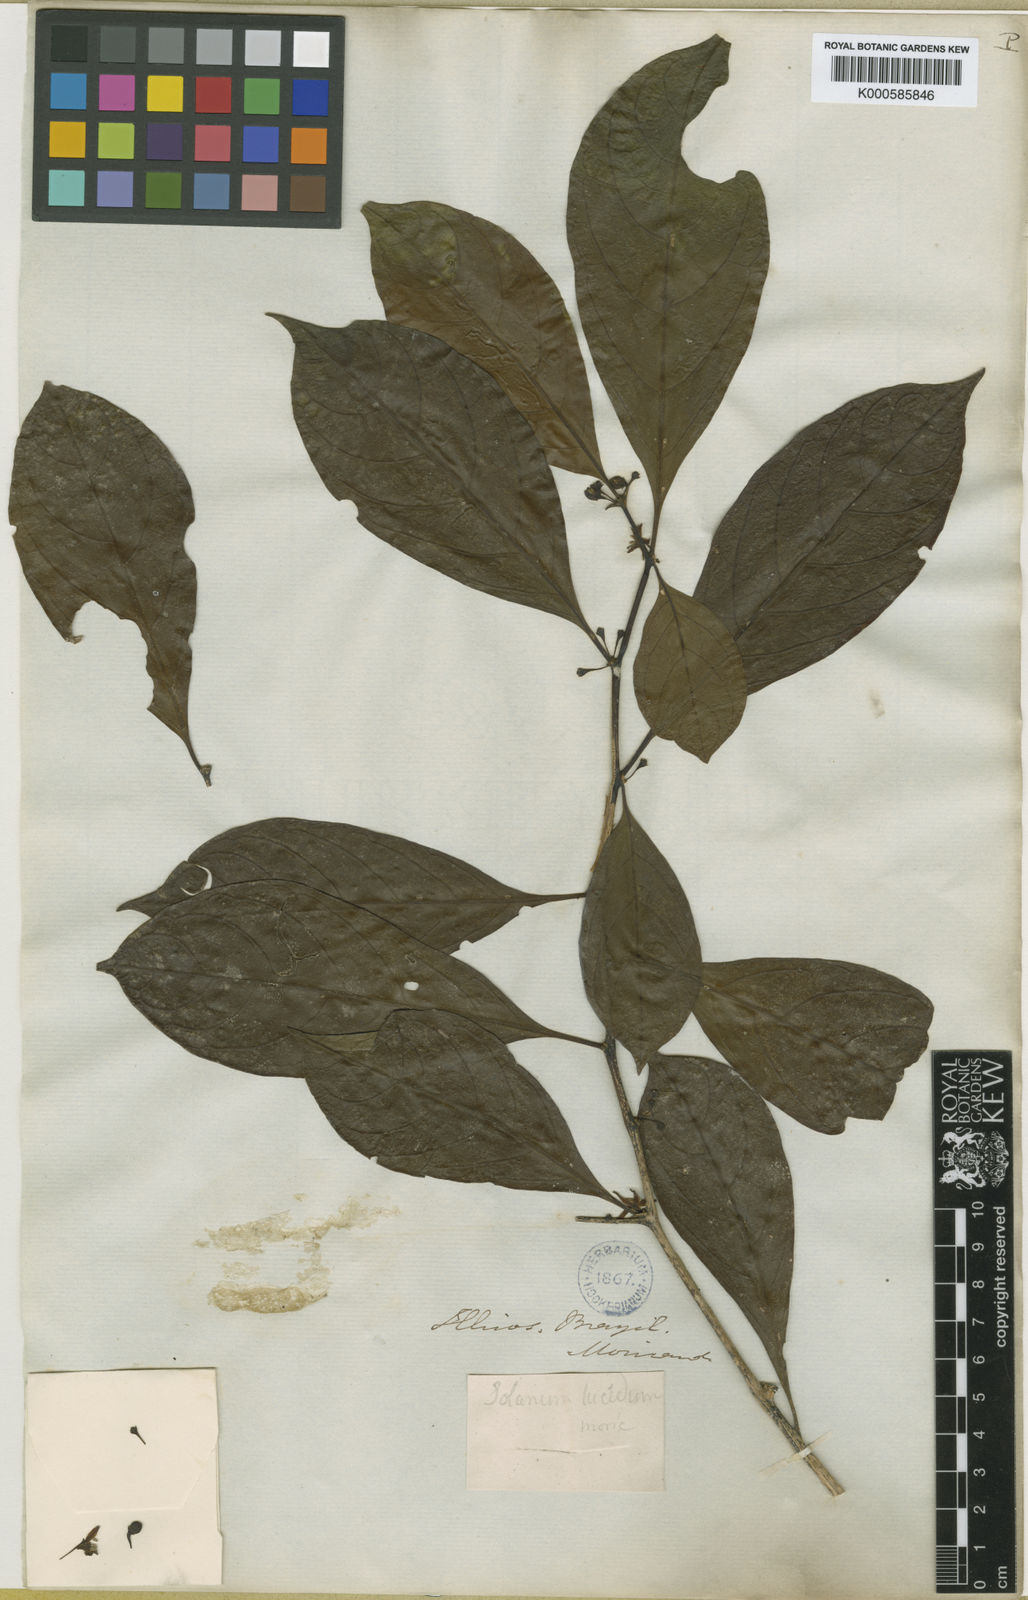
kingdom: Plantae
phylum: Tracheophyta
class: Magnoliopsida
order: Solanales
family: Solanaceae
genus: Athenaea
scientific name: Athenaea fasciculata
